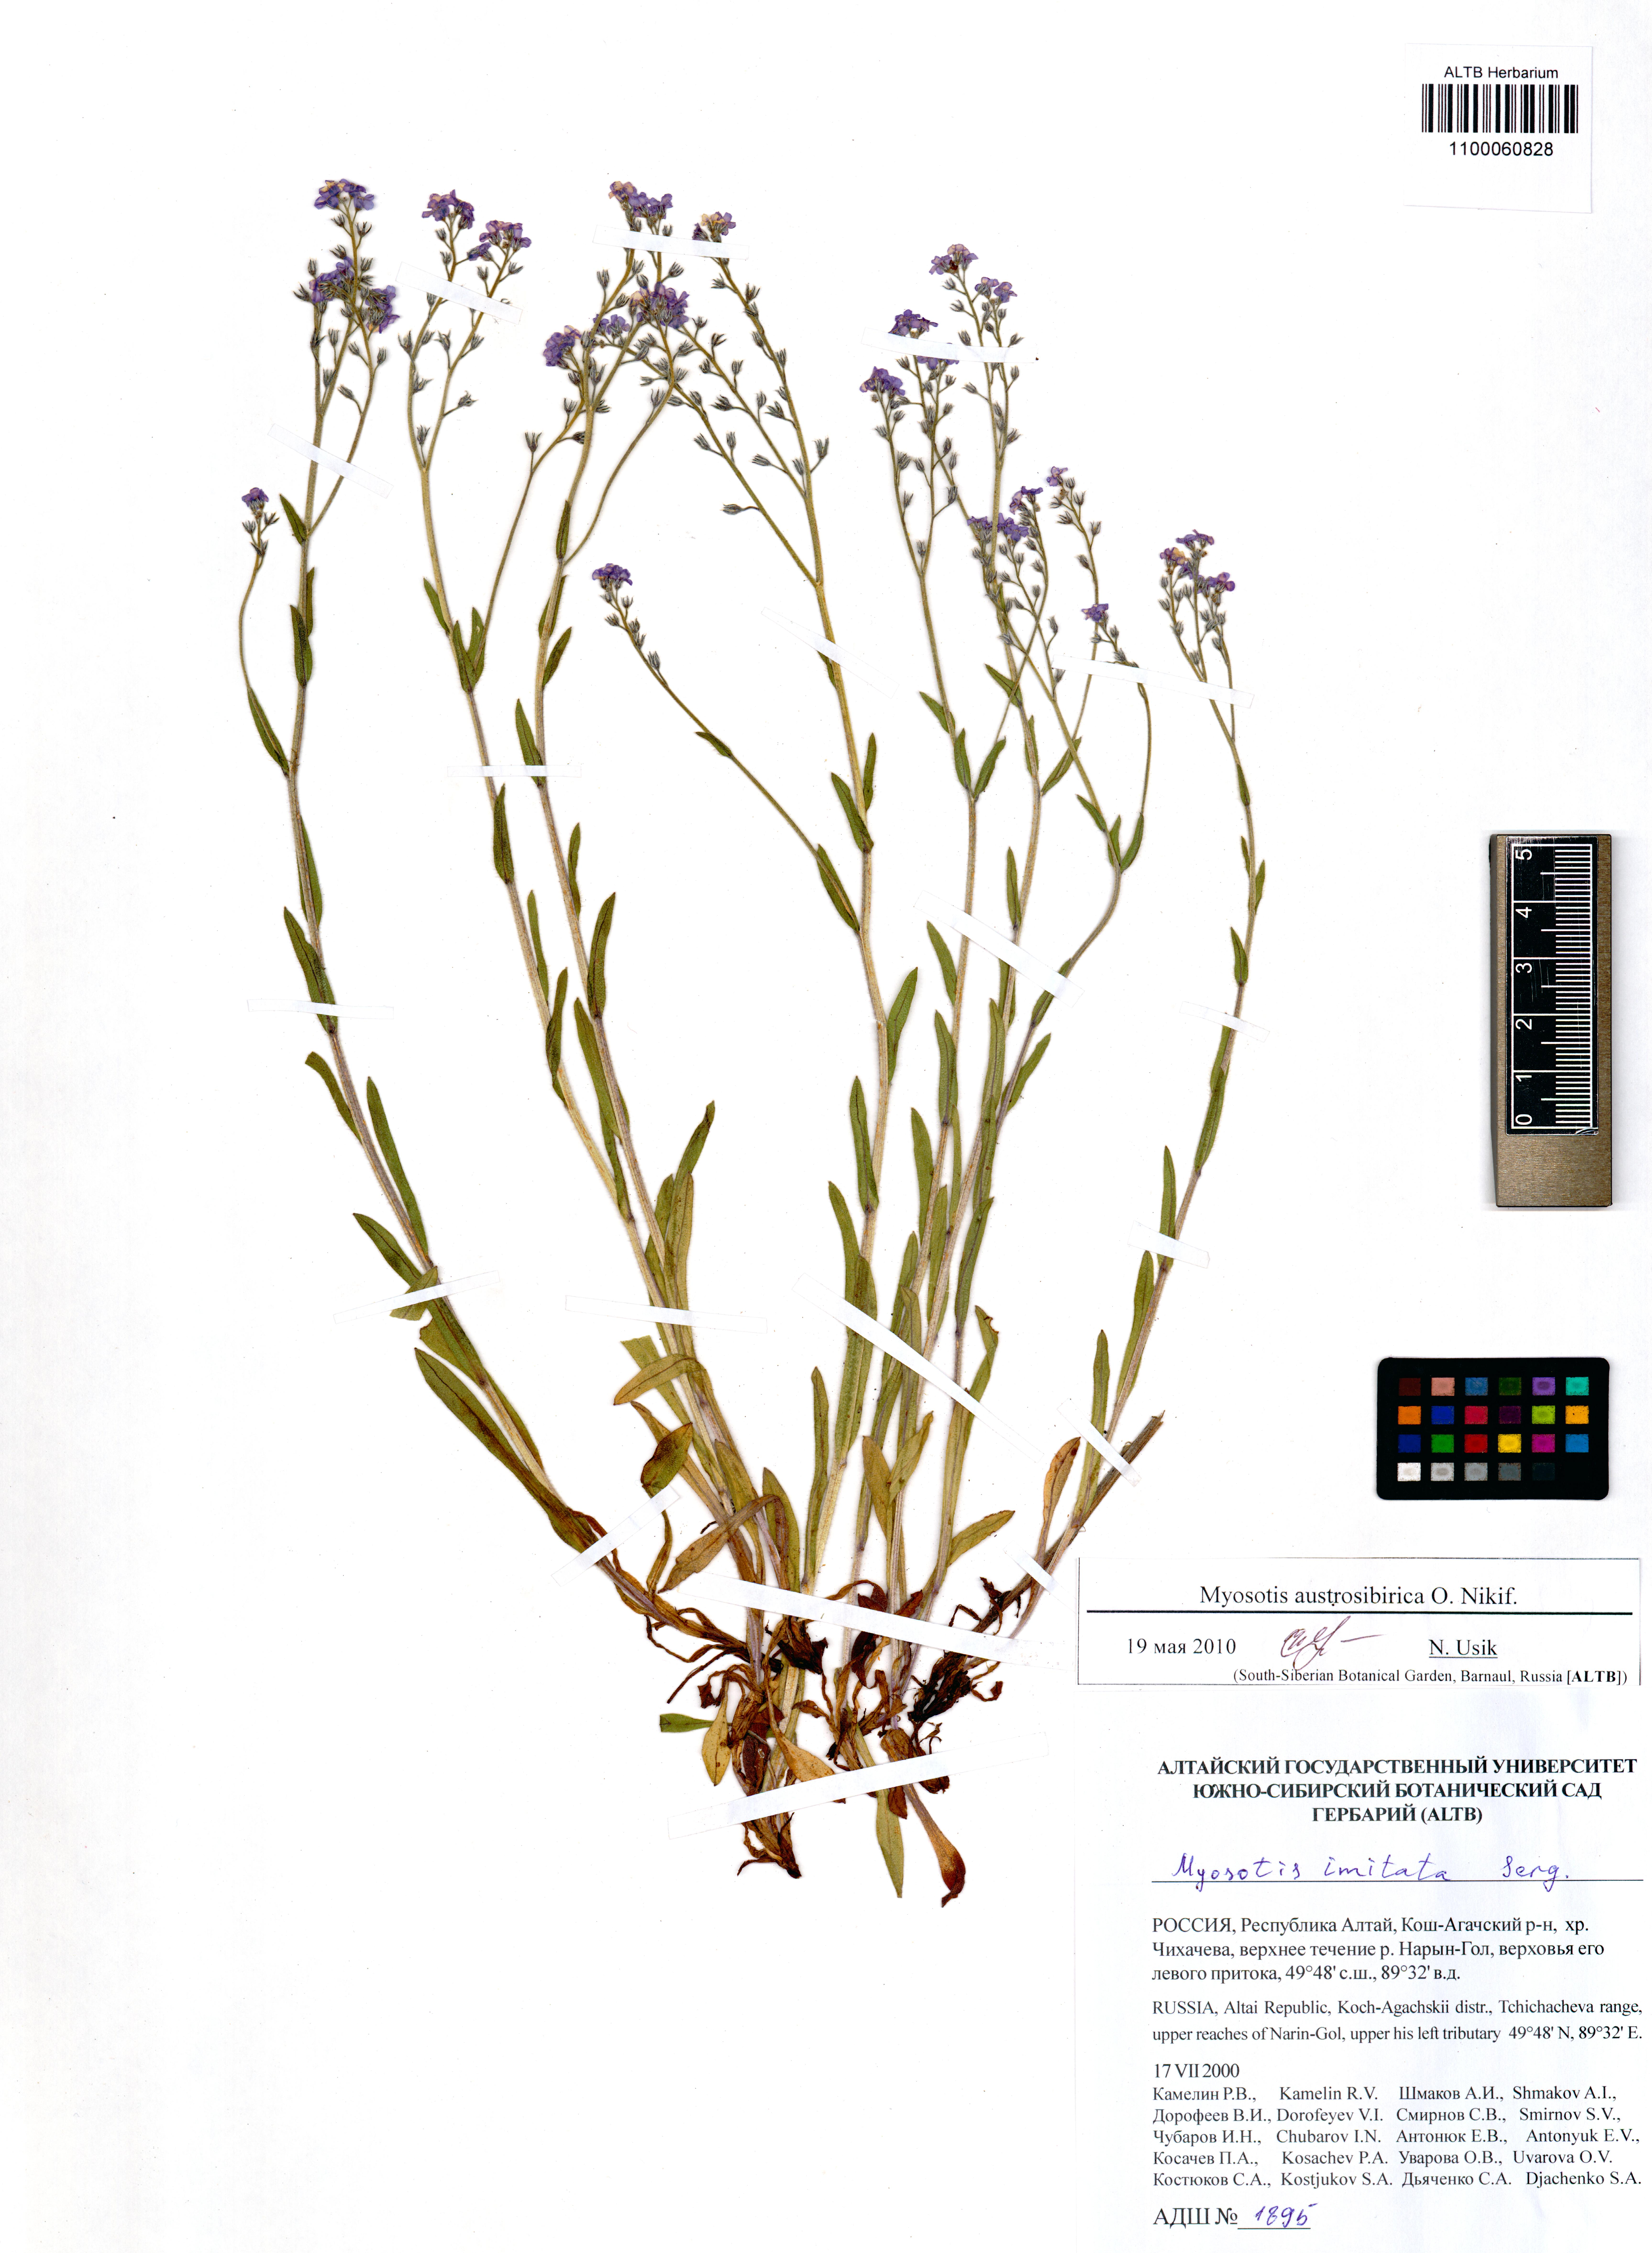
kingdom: Plantae
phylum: Tracheophyta
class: Magnoliopsida
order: Boraginales
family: Boraginaceae
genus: Myosotis
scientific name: Myosotis imitata
